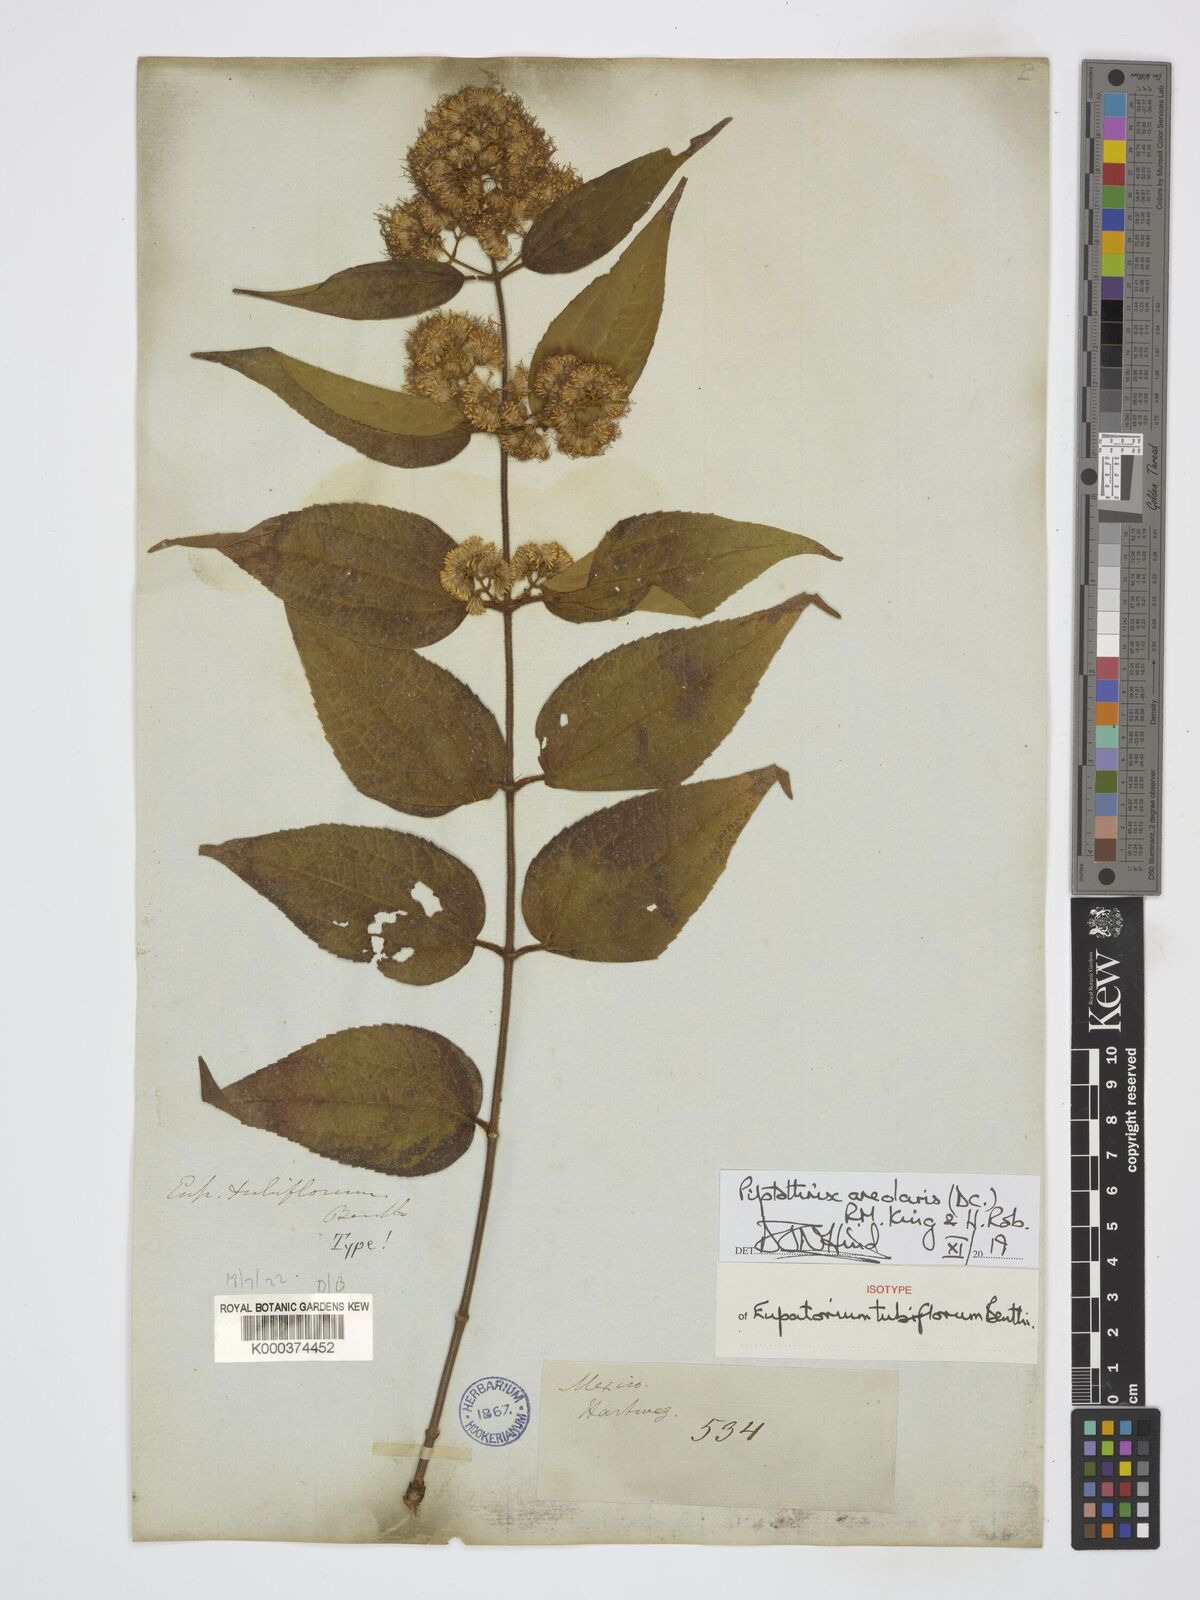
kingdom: Plantae
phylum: Tracheophyta
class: Magnoliopsida
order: Asterales
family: Asteraceae
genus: Ageratina
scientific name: Ageratina areolaris
